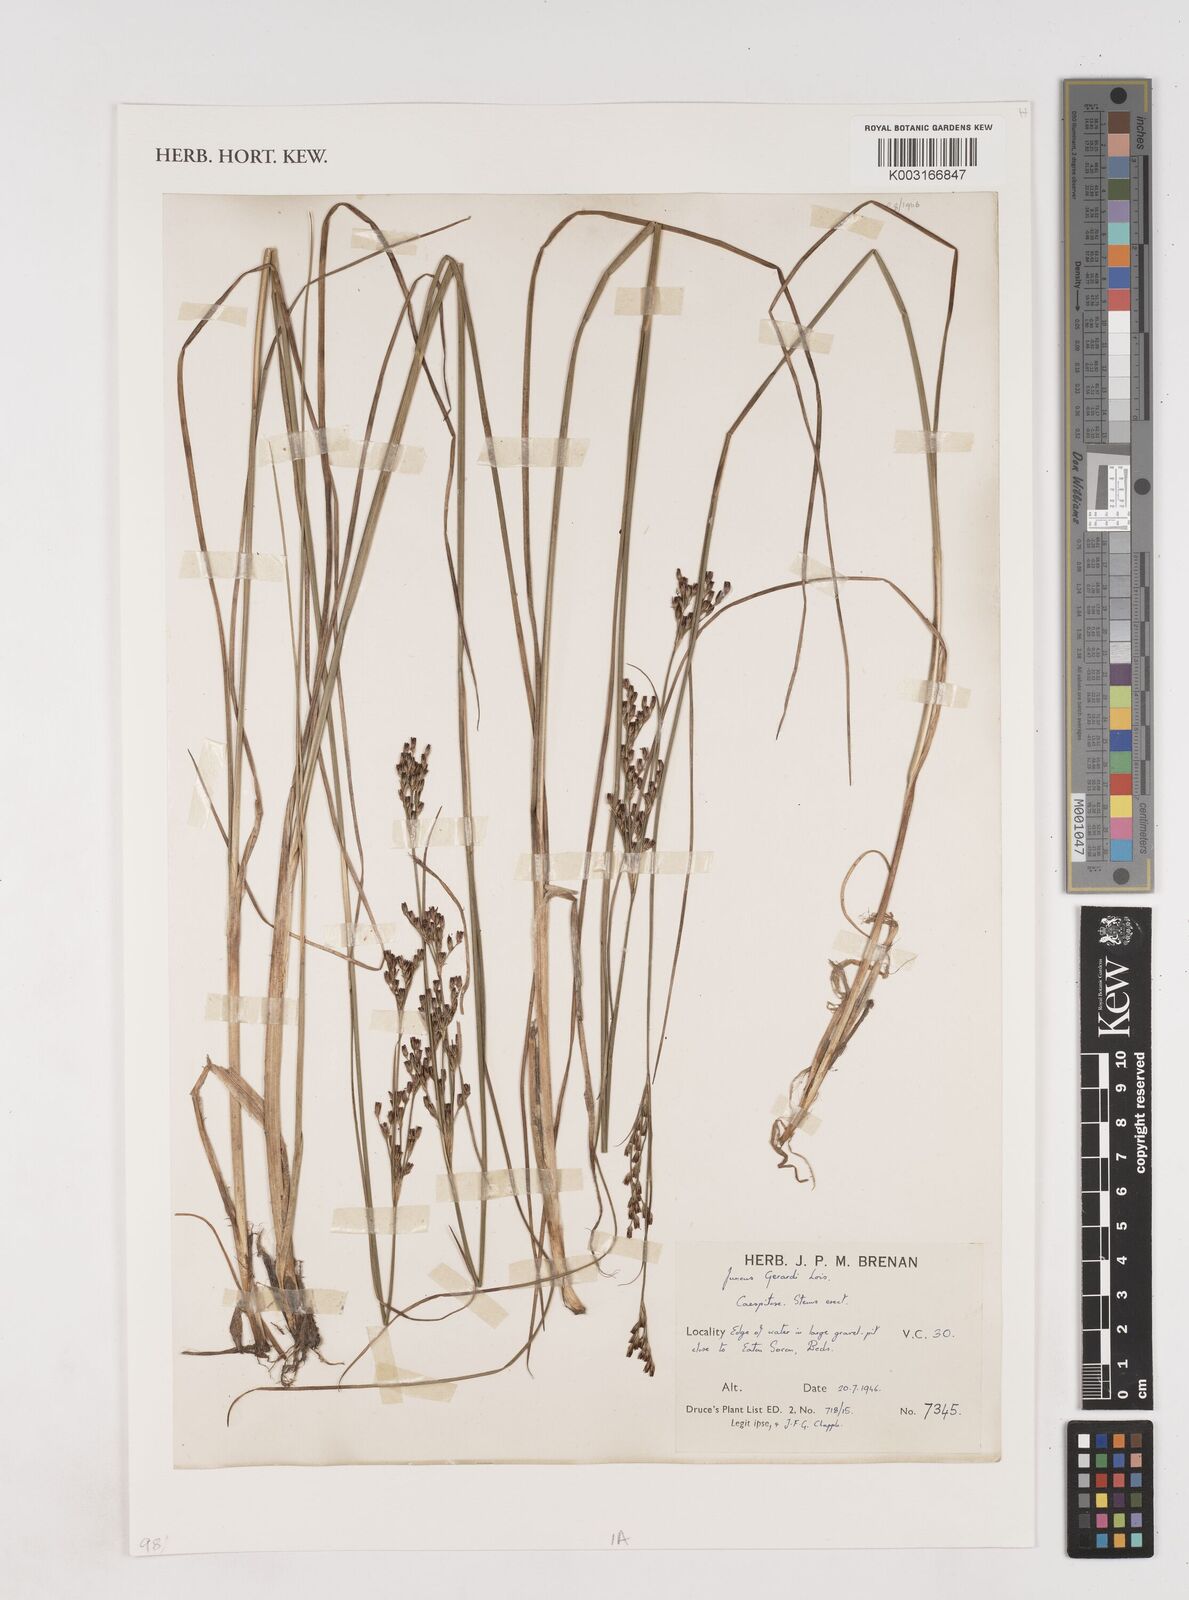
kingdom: Plantae
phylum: Tracheophyta
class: Liliopsida
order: Poales
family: Juncaceae
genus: Juncus
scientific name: Juncus gerardi
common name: Saltmarsh rush
